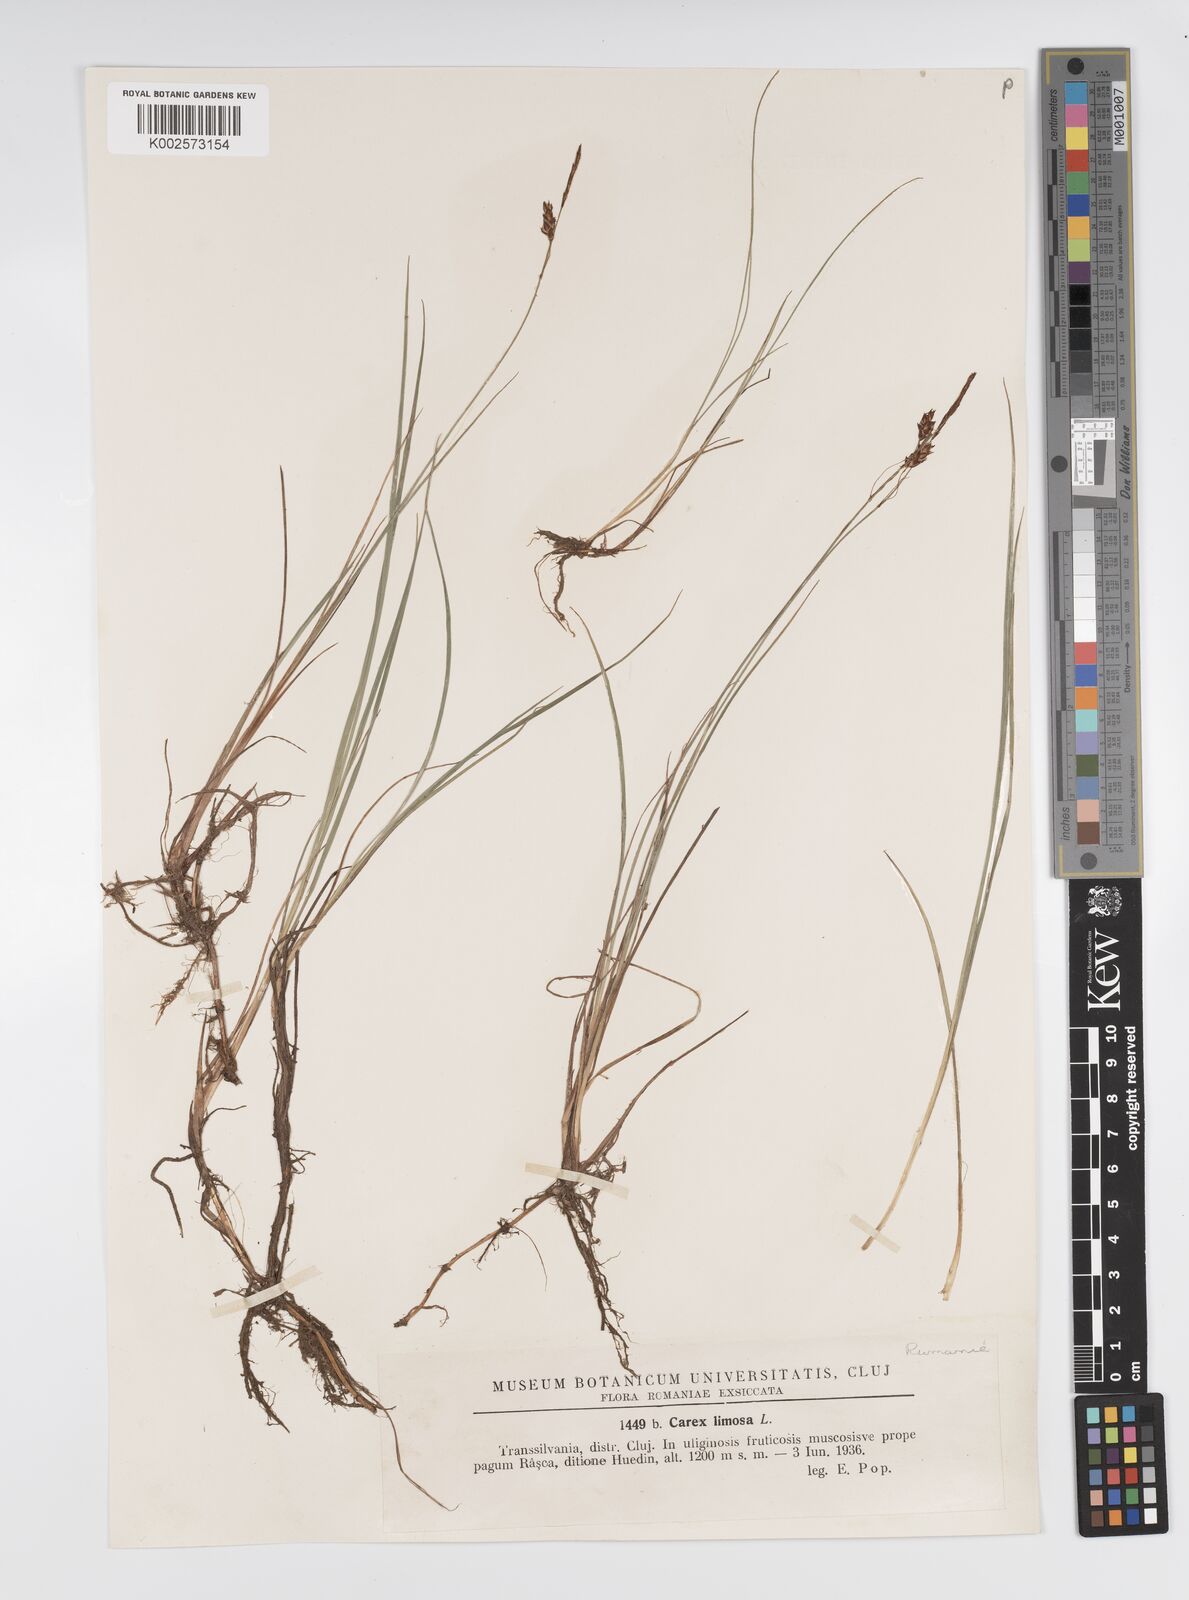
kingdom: Plantae
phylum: Tracheophyta
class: Liliopsida
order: Poales
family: Cyperaceae
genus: Carex
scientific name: Carex limosa
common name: Bog sedge
